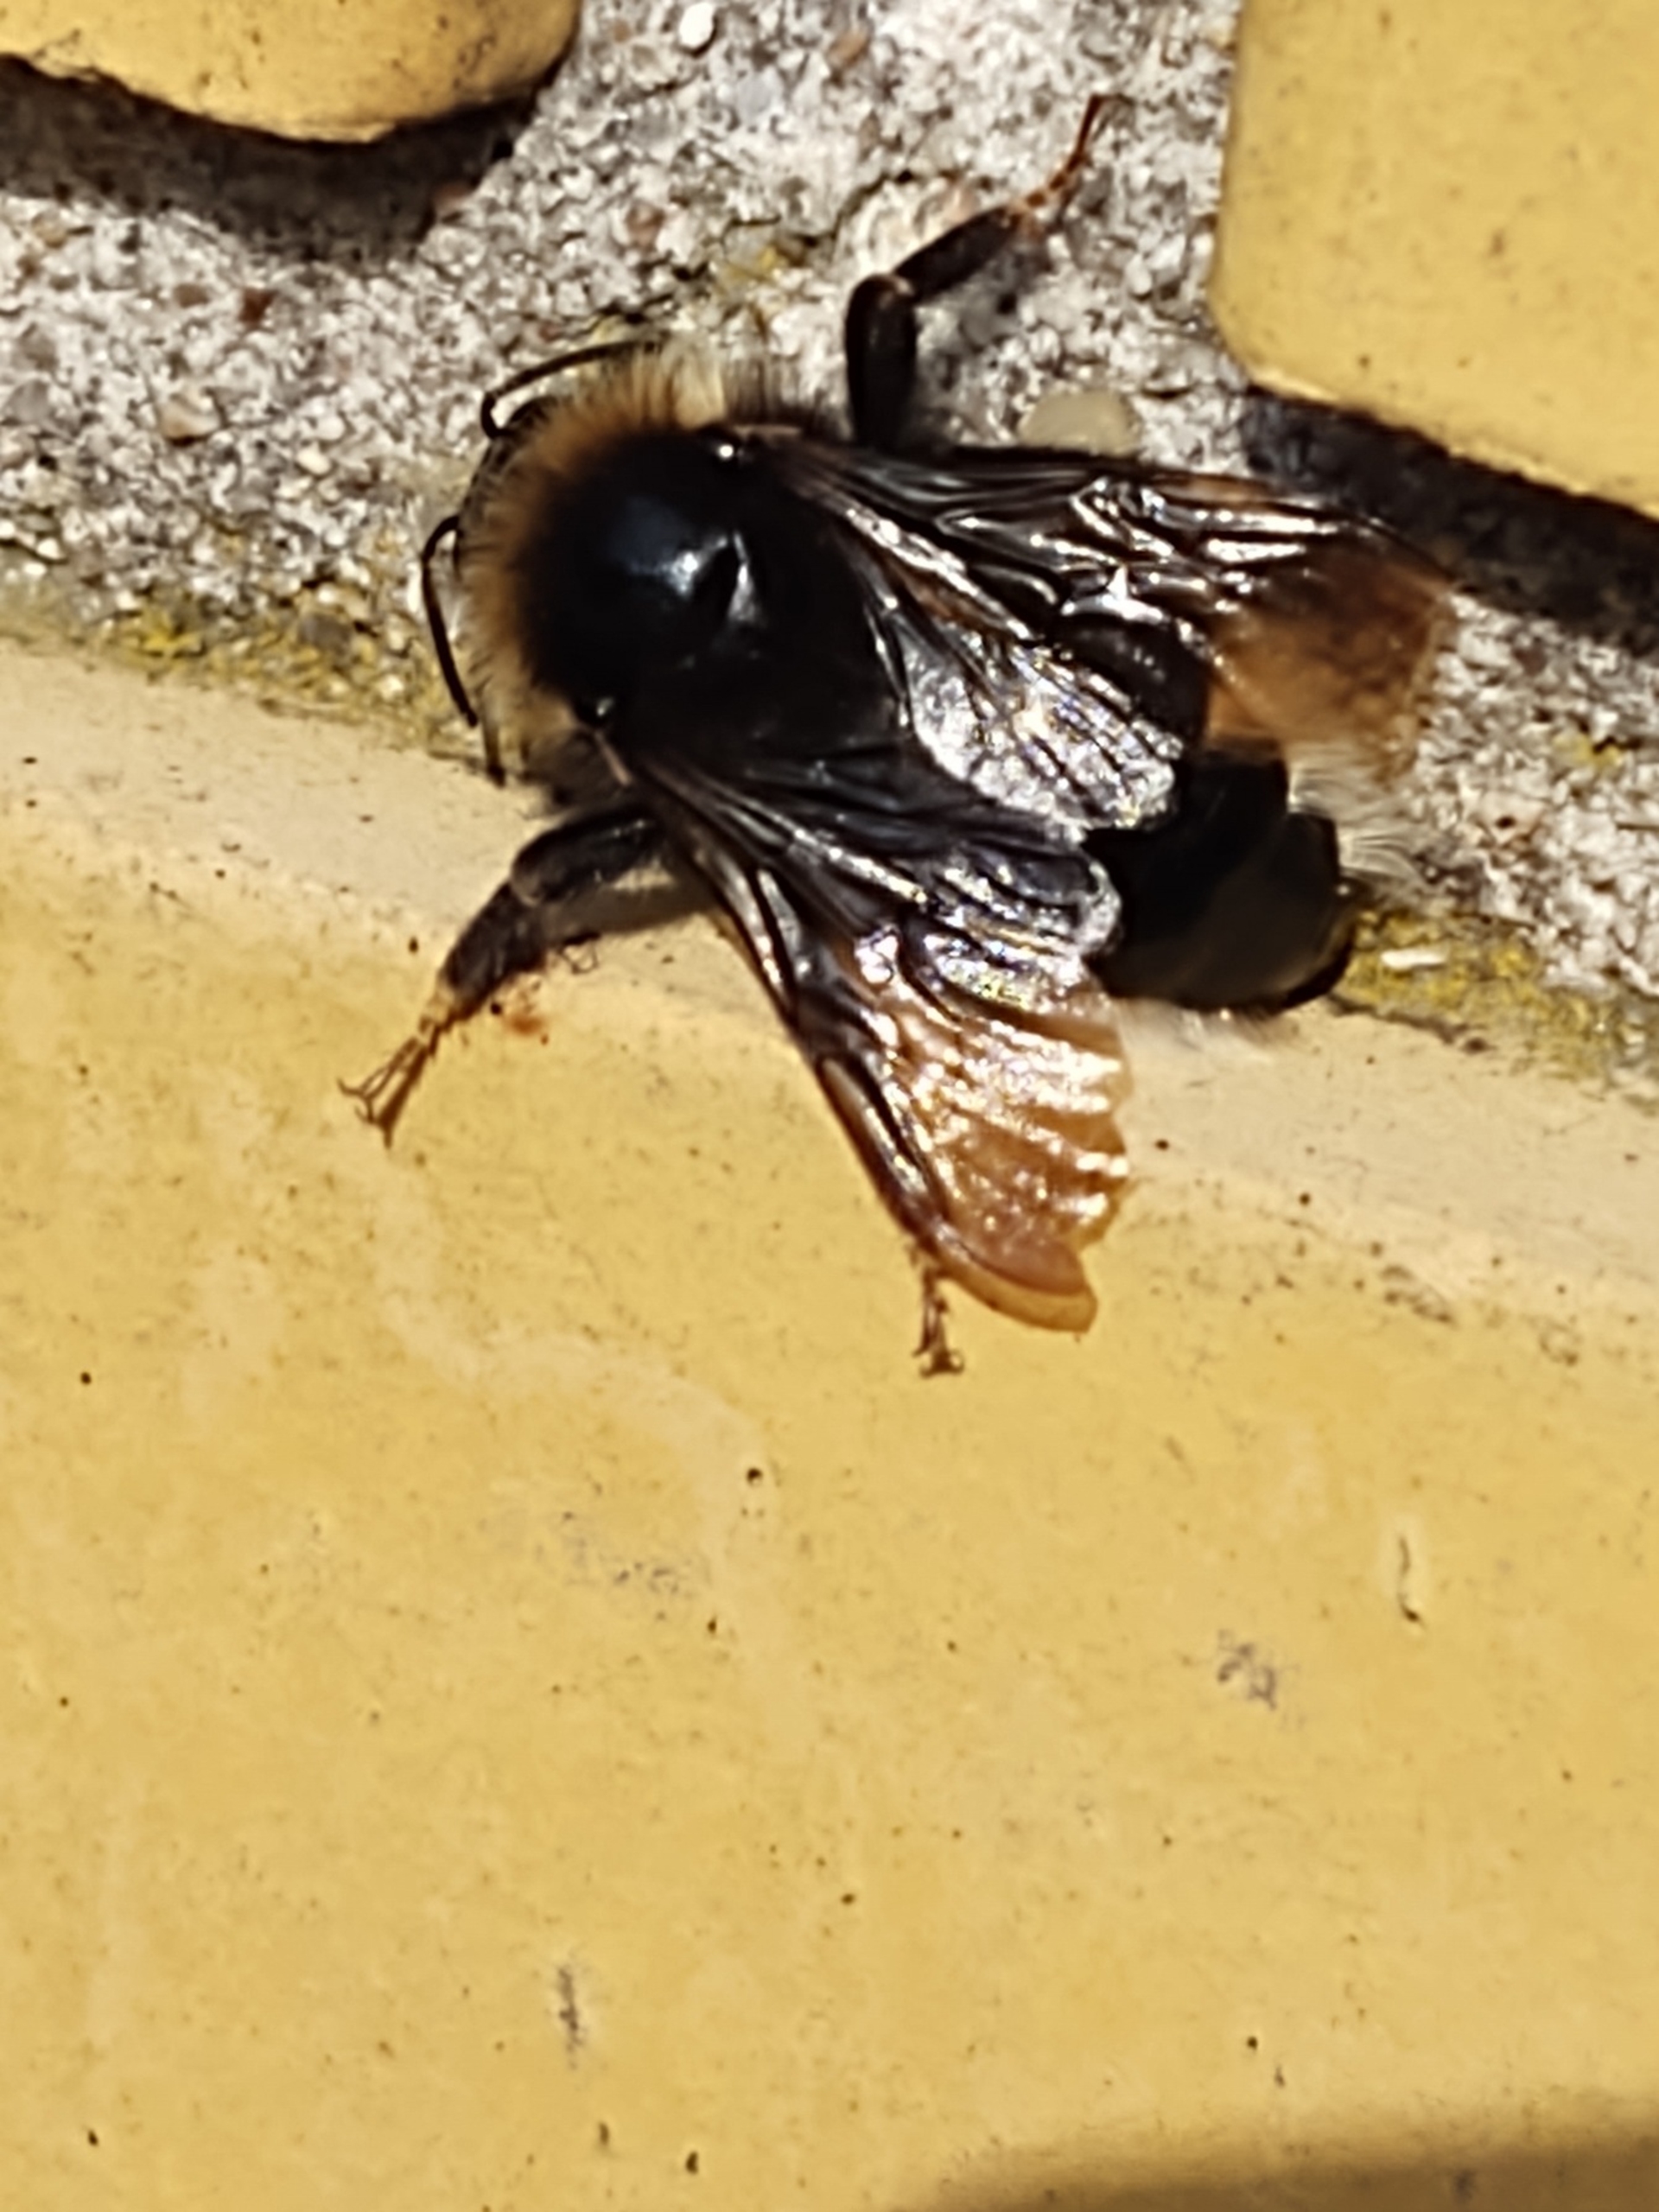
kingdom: Animalia
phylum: Arthropoda
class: Insecta
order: Hymenoptera
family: Apidae
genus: Bombus
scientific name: Bombus
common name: Humlebier
